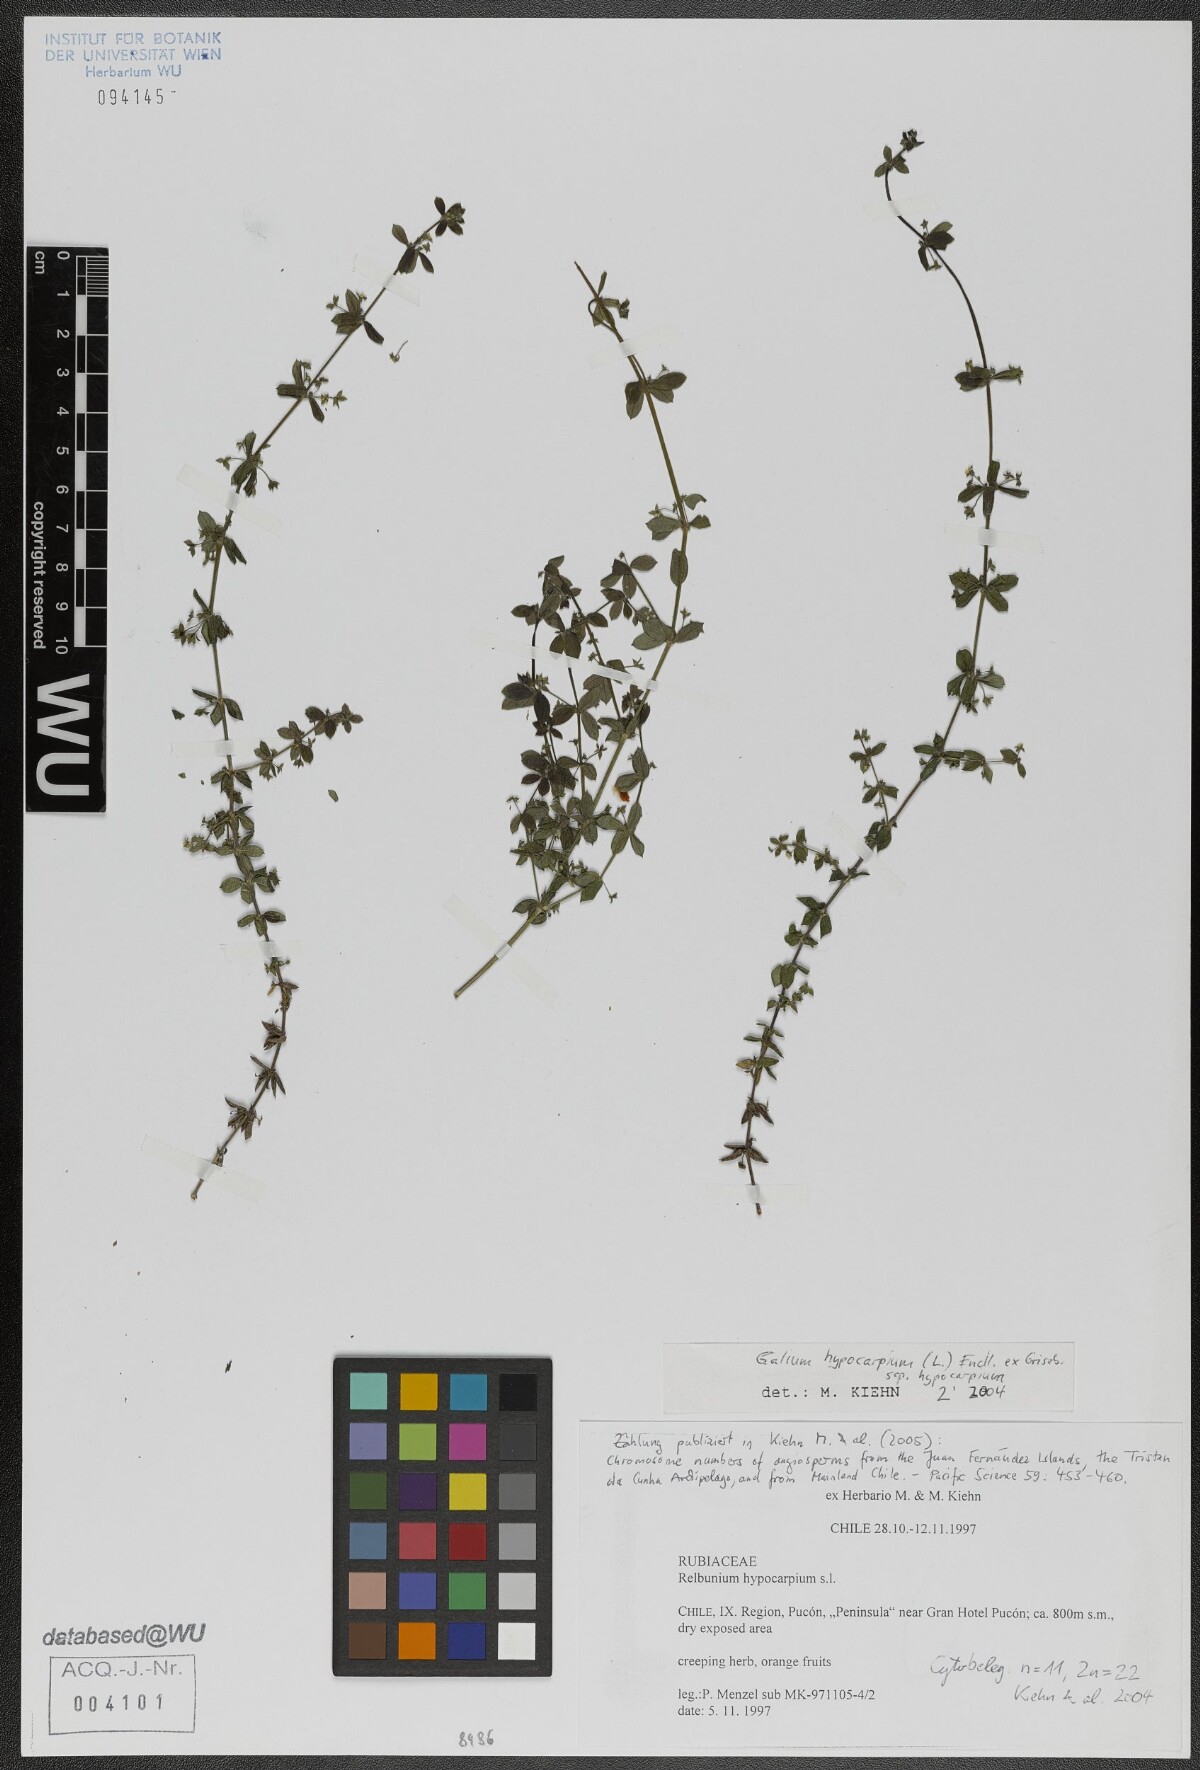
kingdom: Plantae
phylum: Tracheophyta
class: Magnoliopsida
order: Gentianales
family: Rubiaceae
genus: Galium
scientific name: Galium hypocarpium
